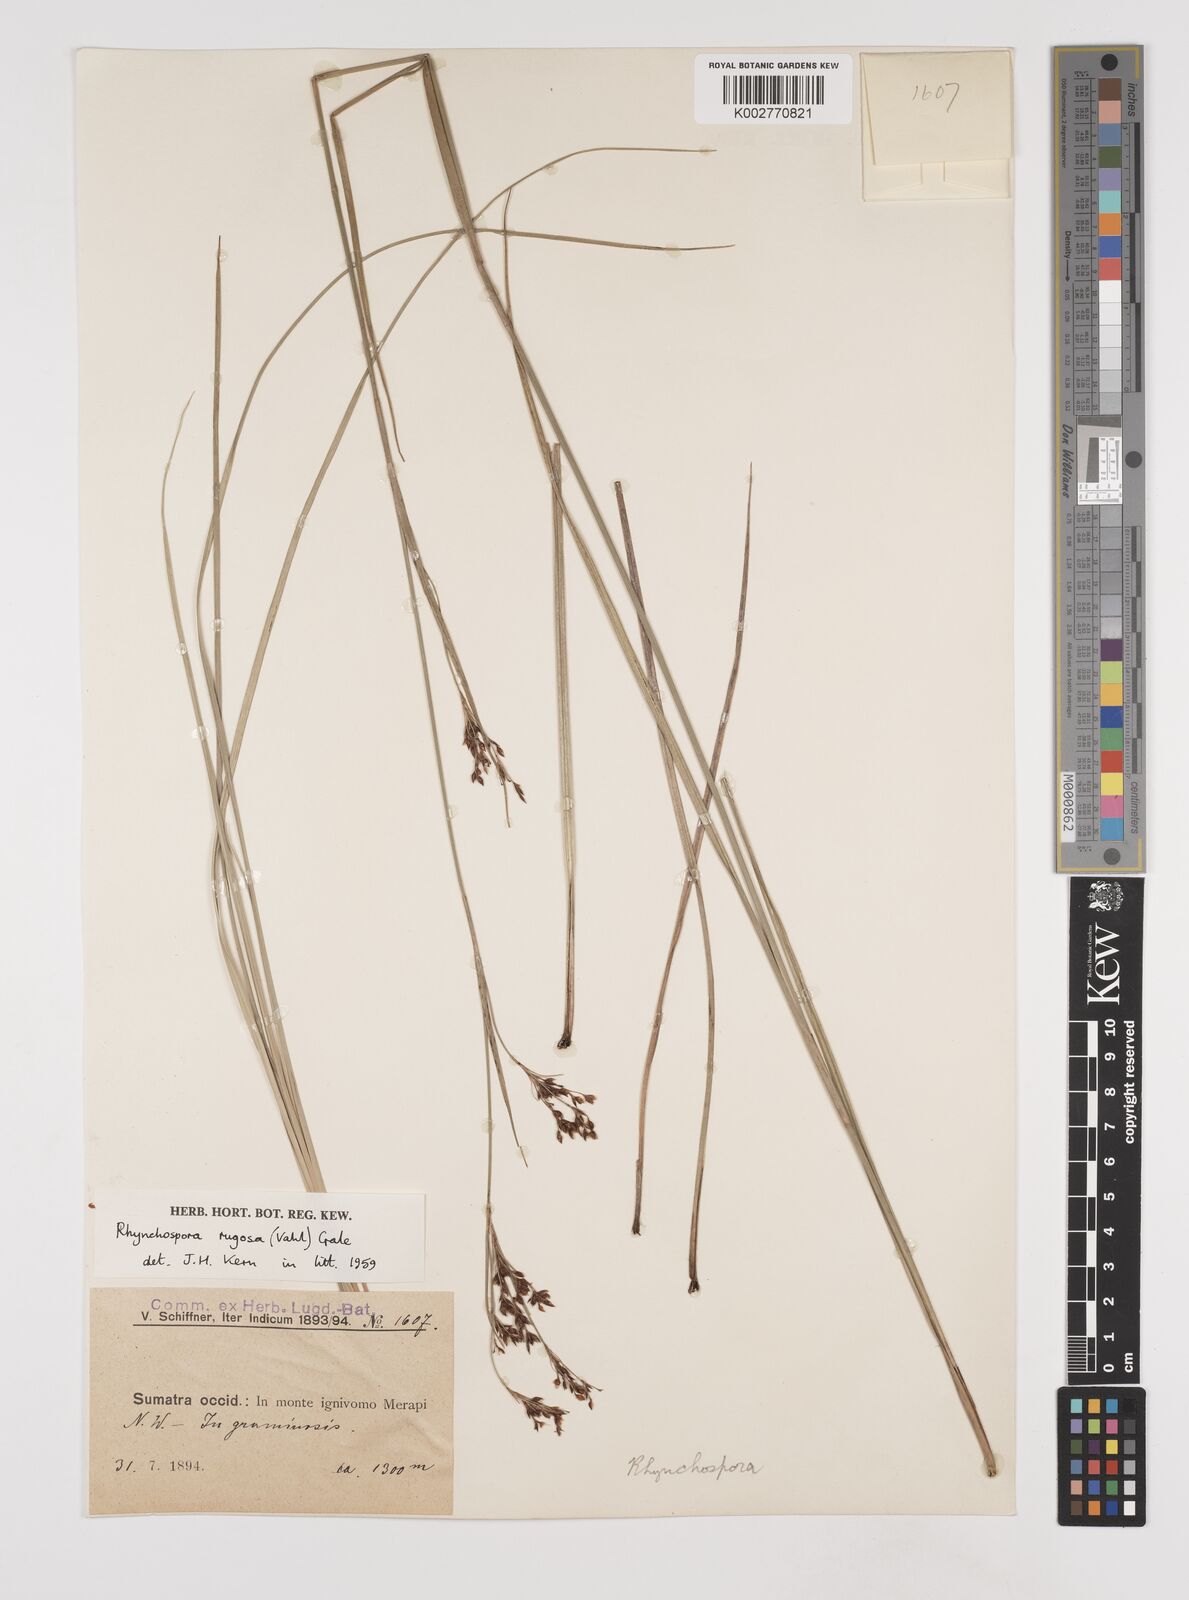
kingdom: Plantae
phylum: Tracheophyta
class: Liliopsida
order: Poales
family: Cyperaceae
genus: Rhynchospora
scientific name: Rhynchospora rugosa
